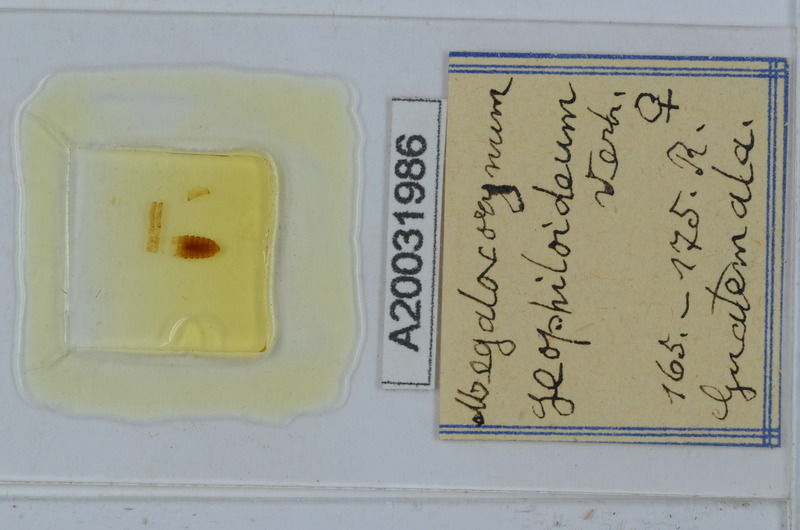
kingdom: Animalia
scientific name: Animalia
